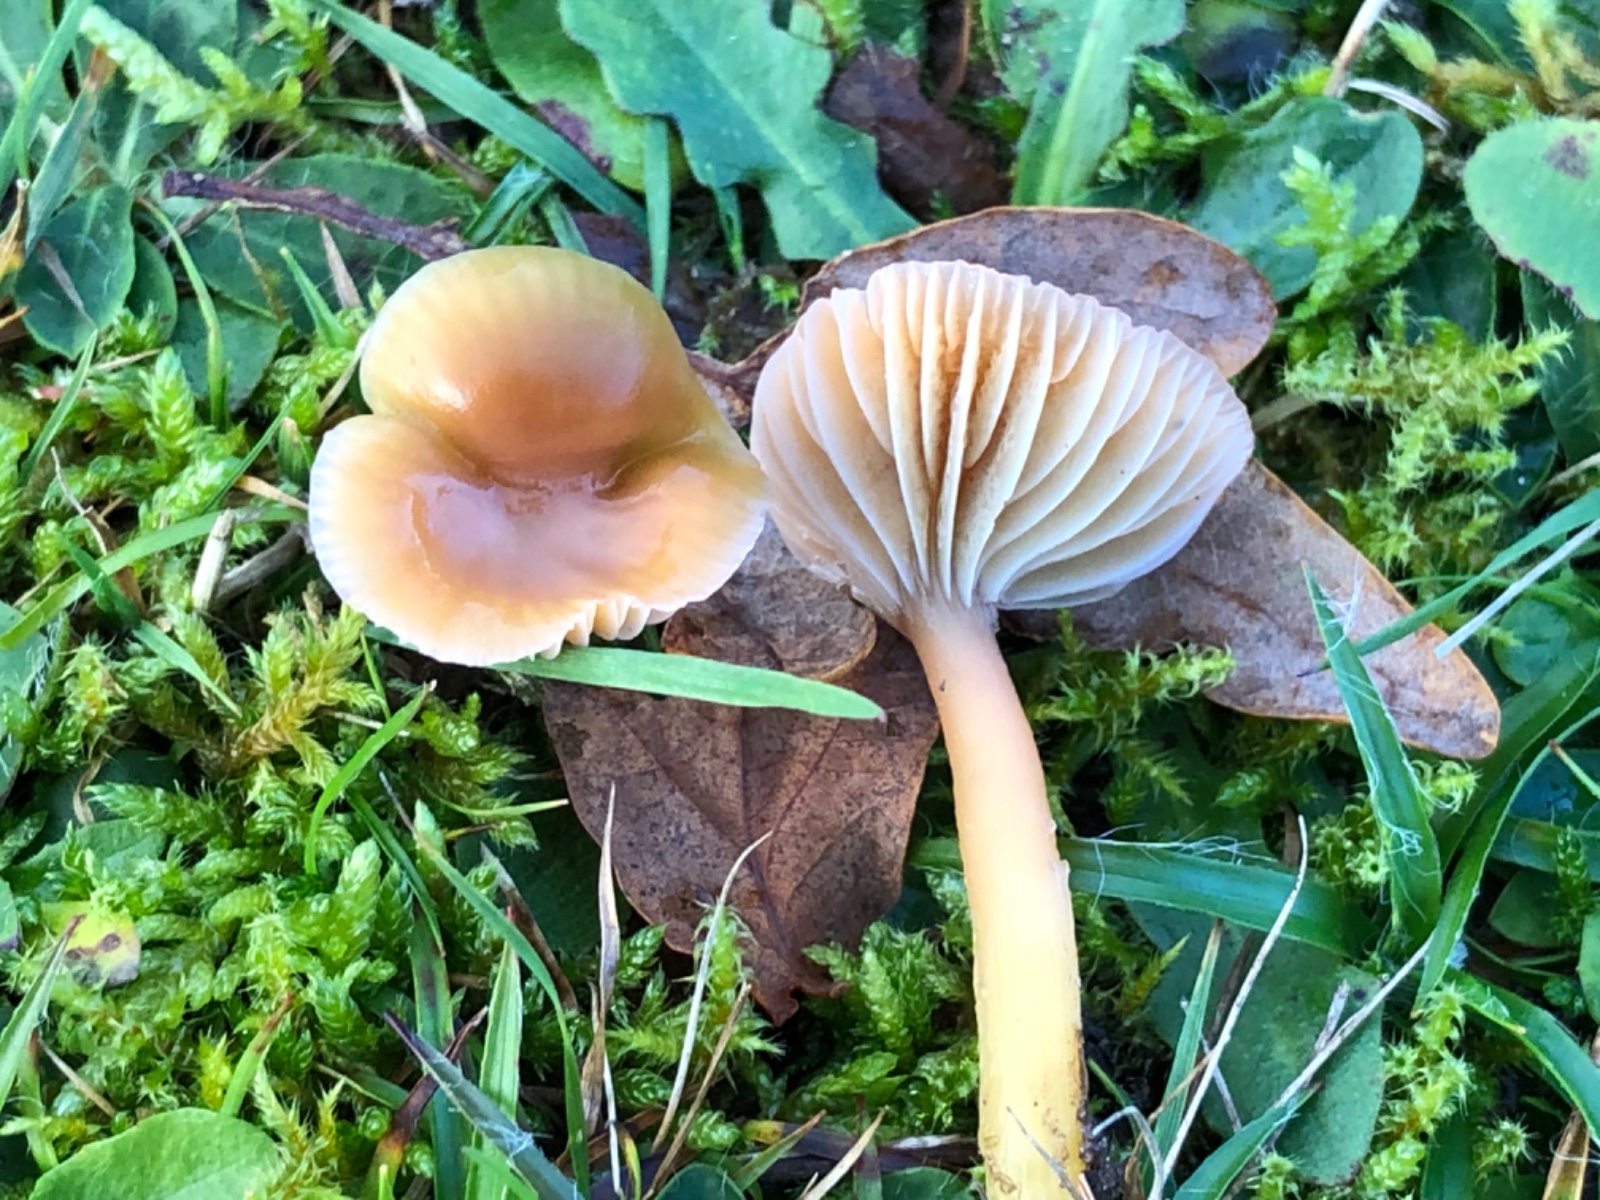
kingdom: Fungi
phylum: Basidiomycota
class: Agaricomycetes
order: Agaricales
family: Hygrophoraceae
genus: Gliophorus
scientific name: Gliophorus laetus
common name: brusk-vokshat
